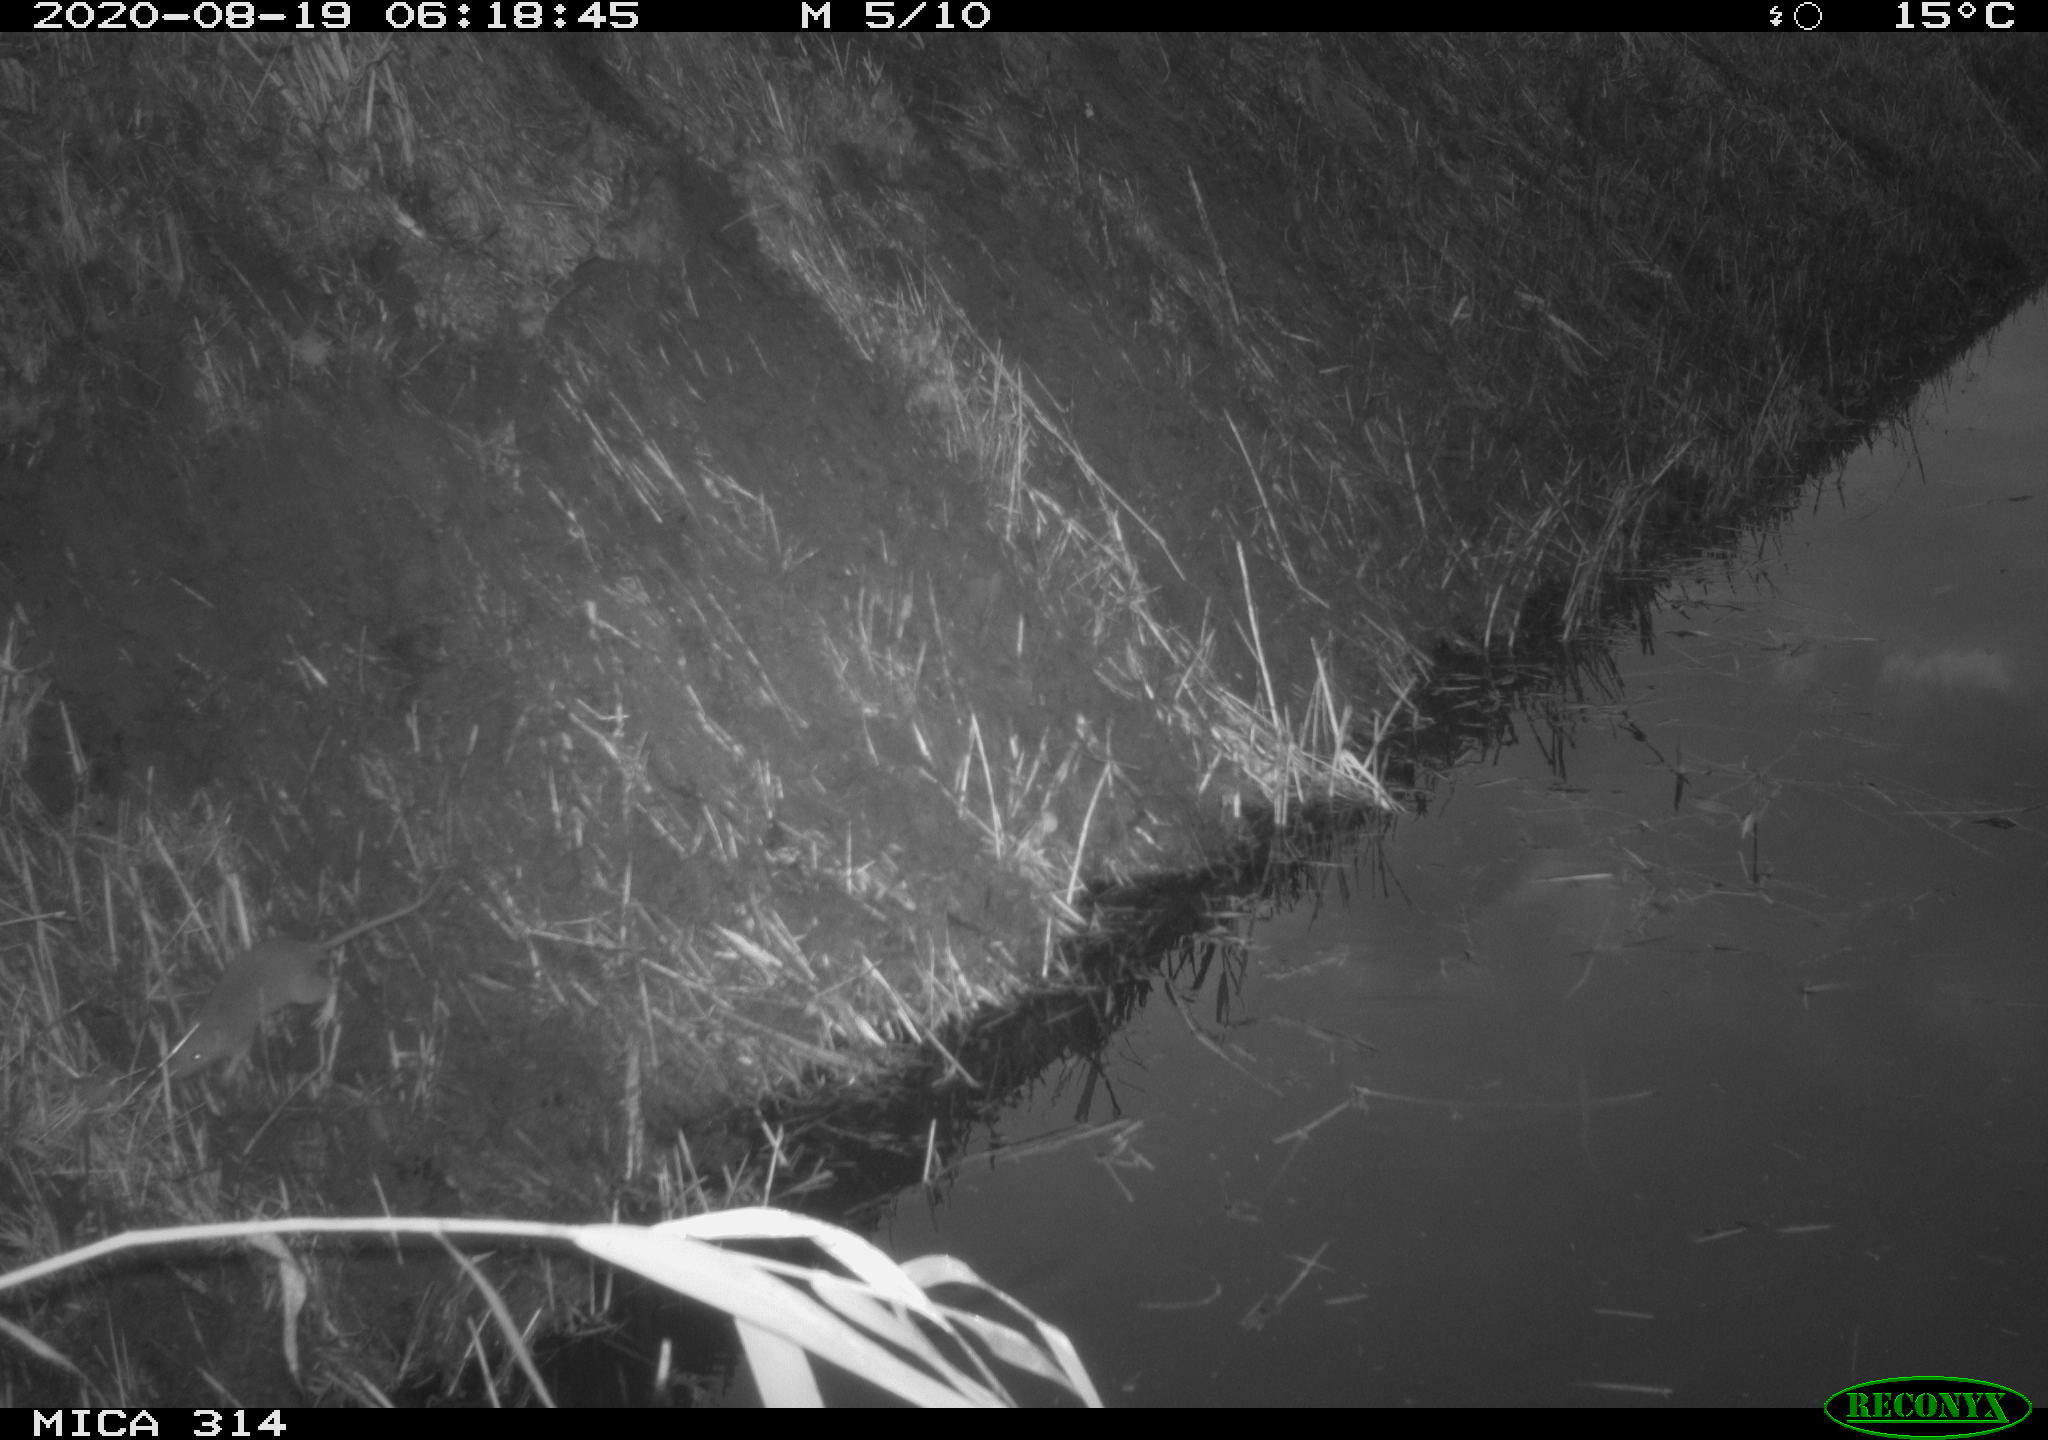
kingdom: Animalia
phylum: Chordata
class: Mammalia
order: Rodentia
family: Muridae
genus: Rattus
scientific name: Rattus norvegicus
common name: Brown rat
